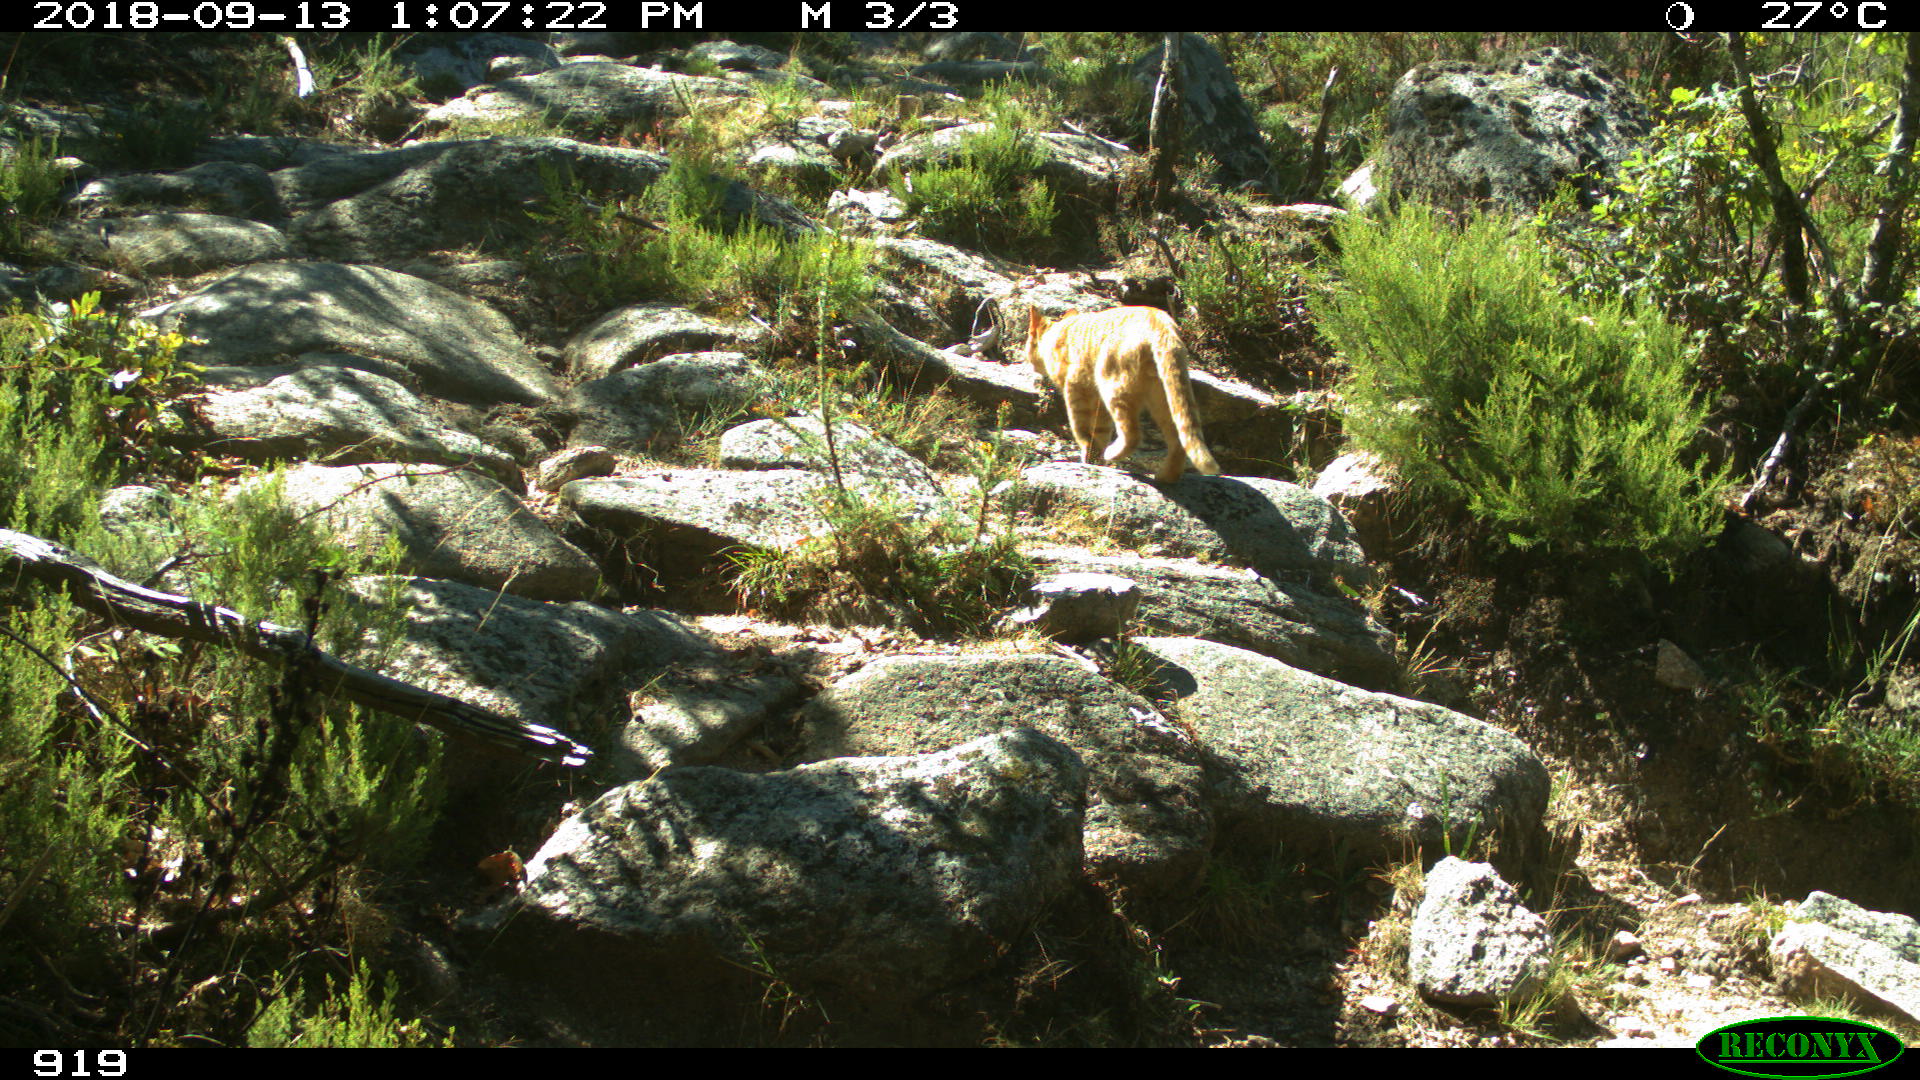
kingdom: Animalia
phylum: Chordata
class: Mammalia
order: Carnivora
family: Felidae
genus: Felis
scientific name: Felis catus
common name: Domestic cat
